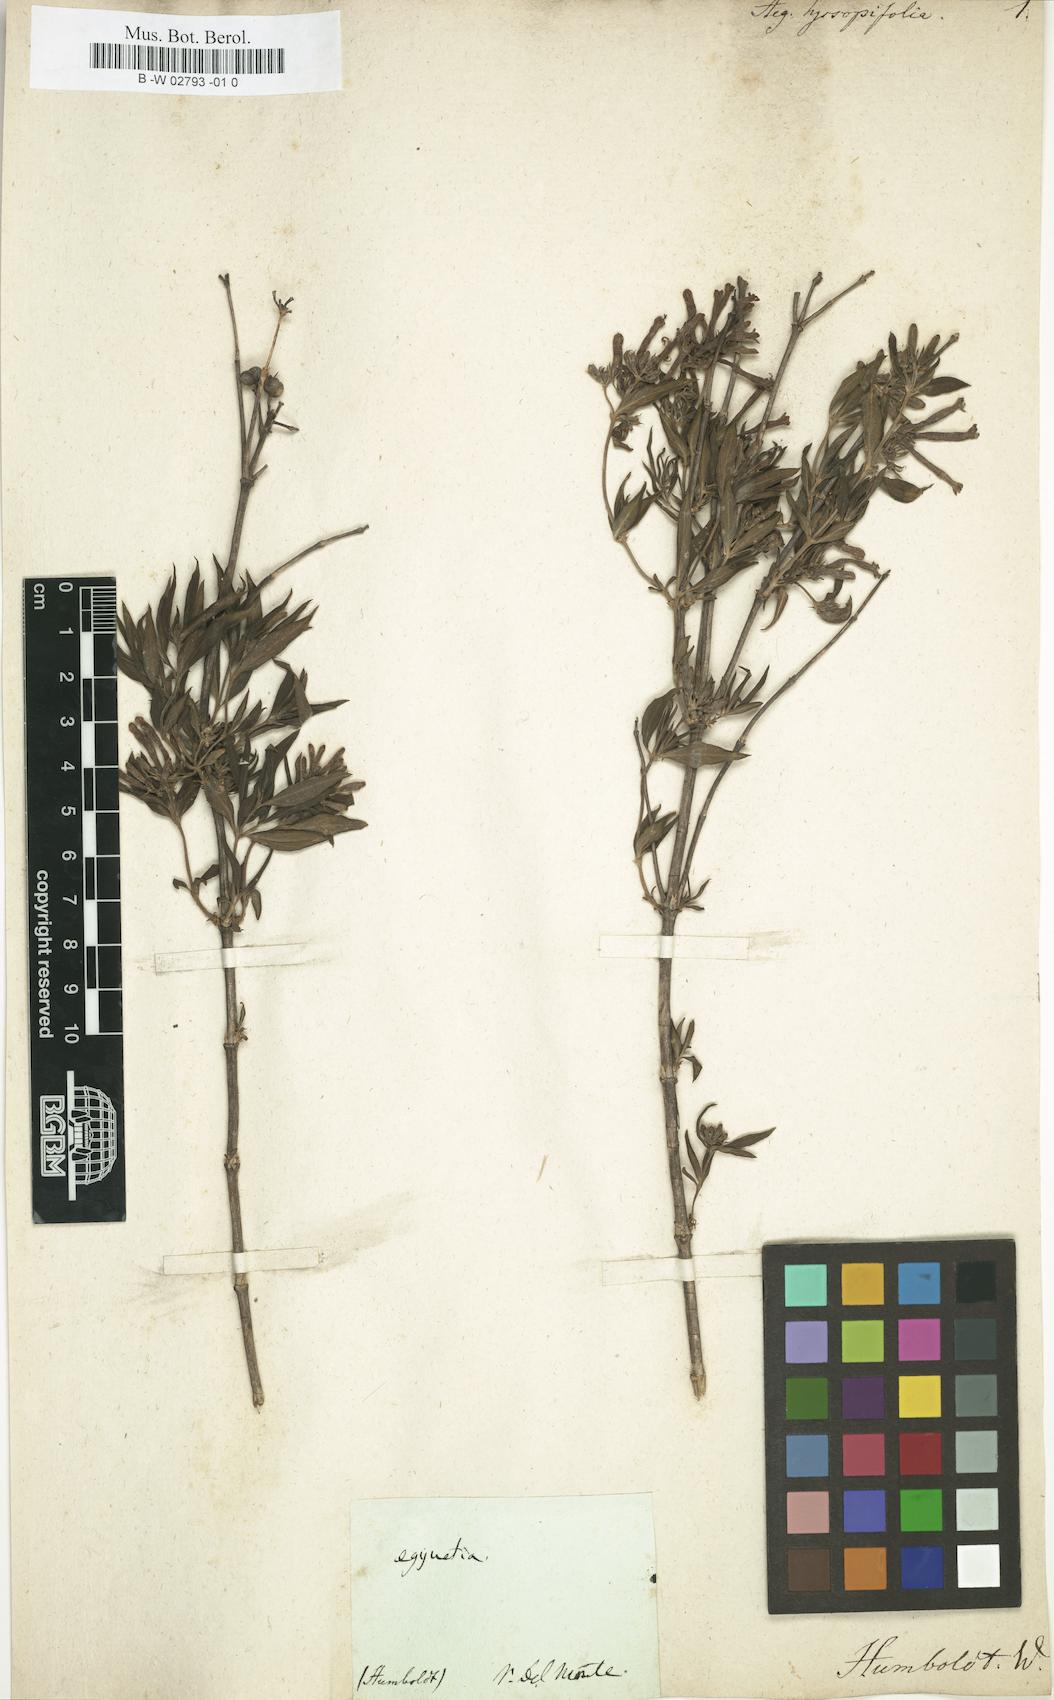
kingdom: Plantae
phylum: Tracheophyta
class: Magnoliopsida
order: Lamiales
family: Orobanchaceae
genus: Aeginetia
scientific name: Aeginetia
